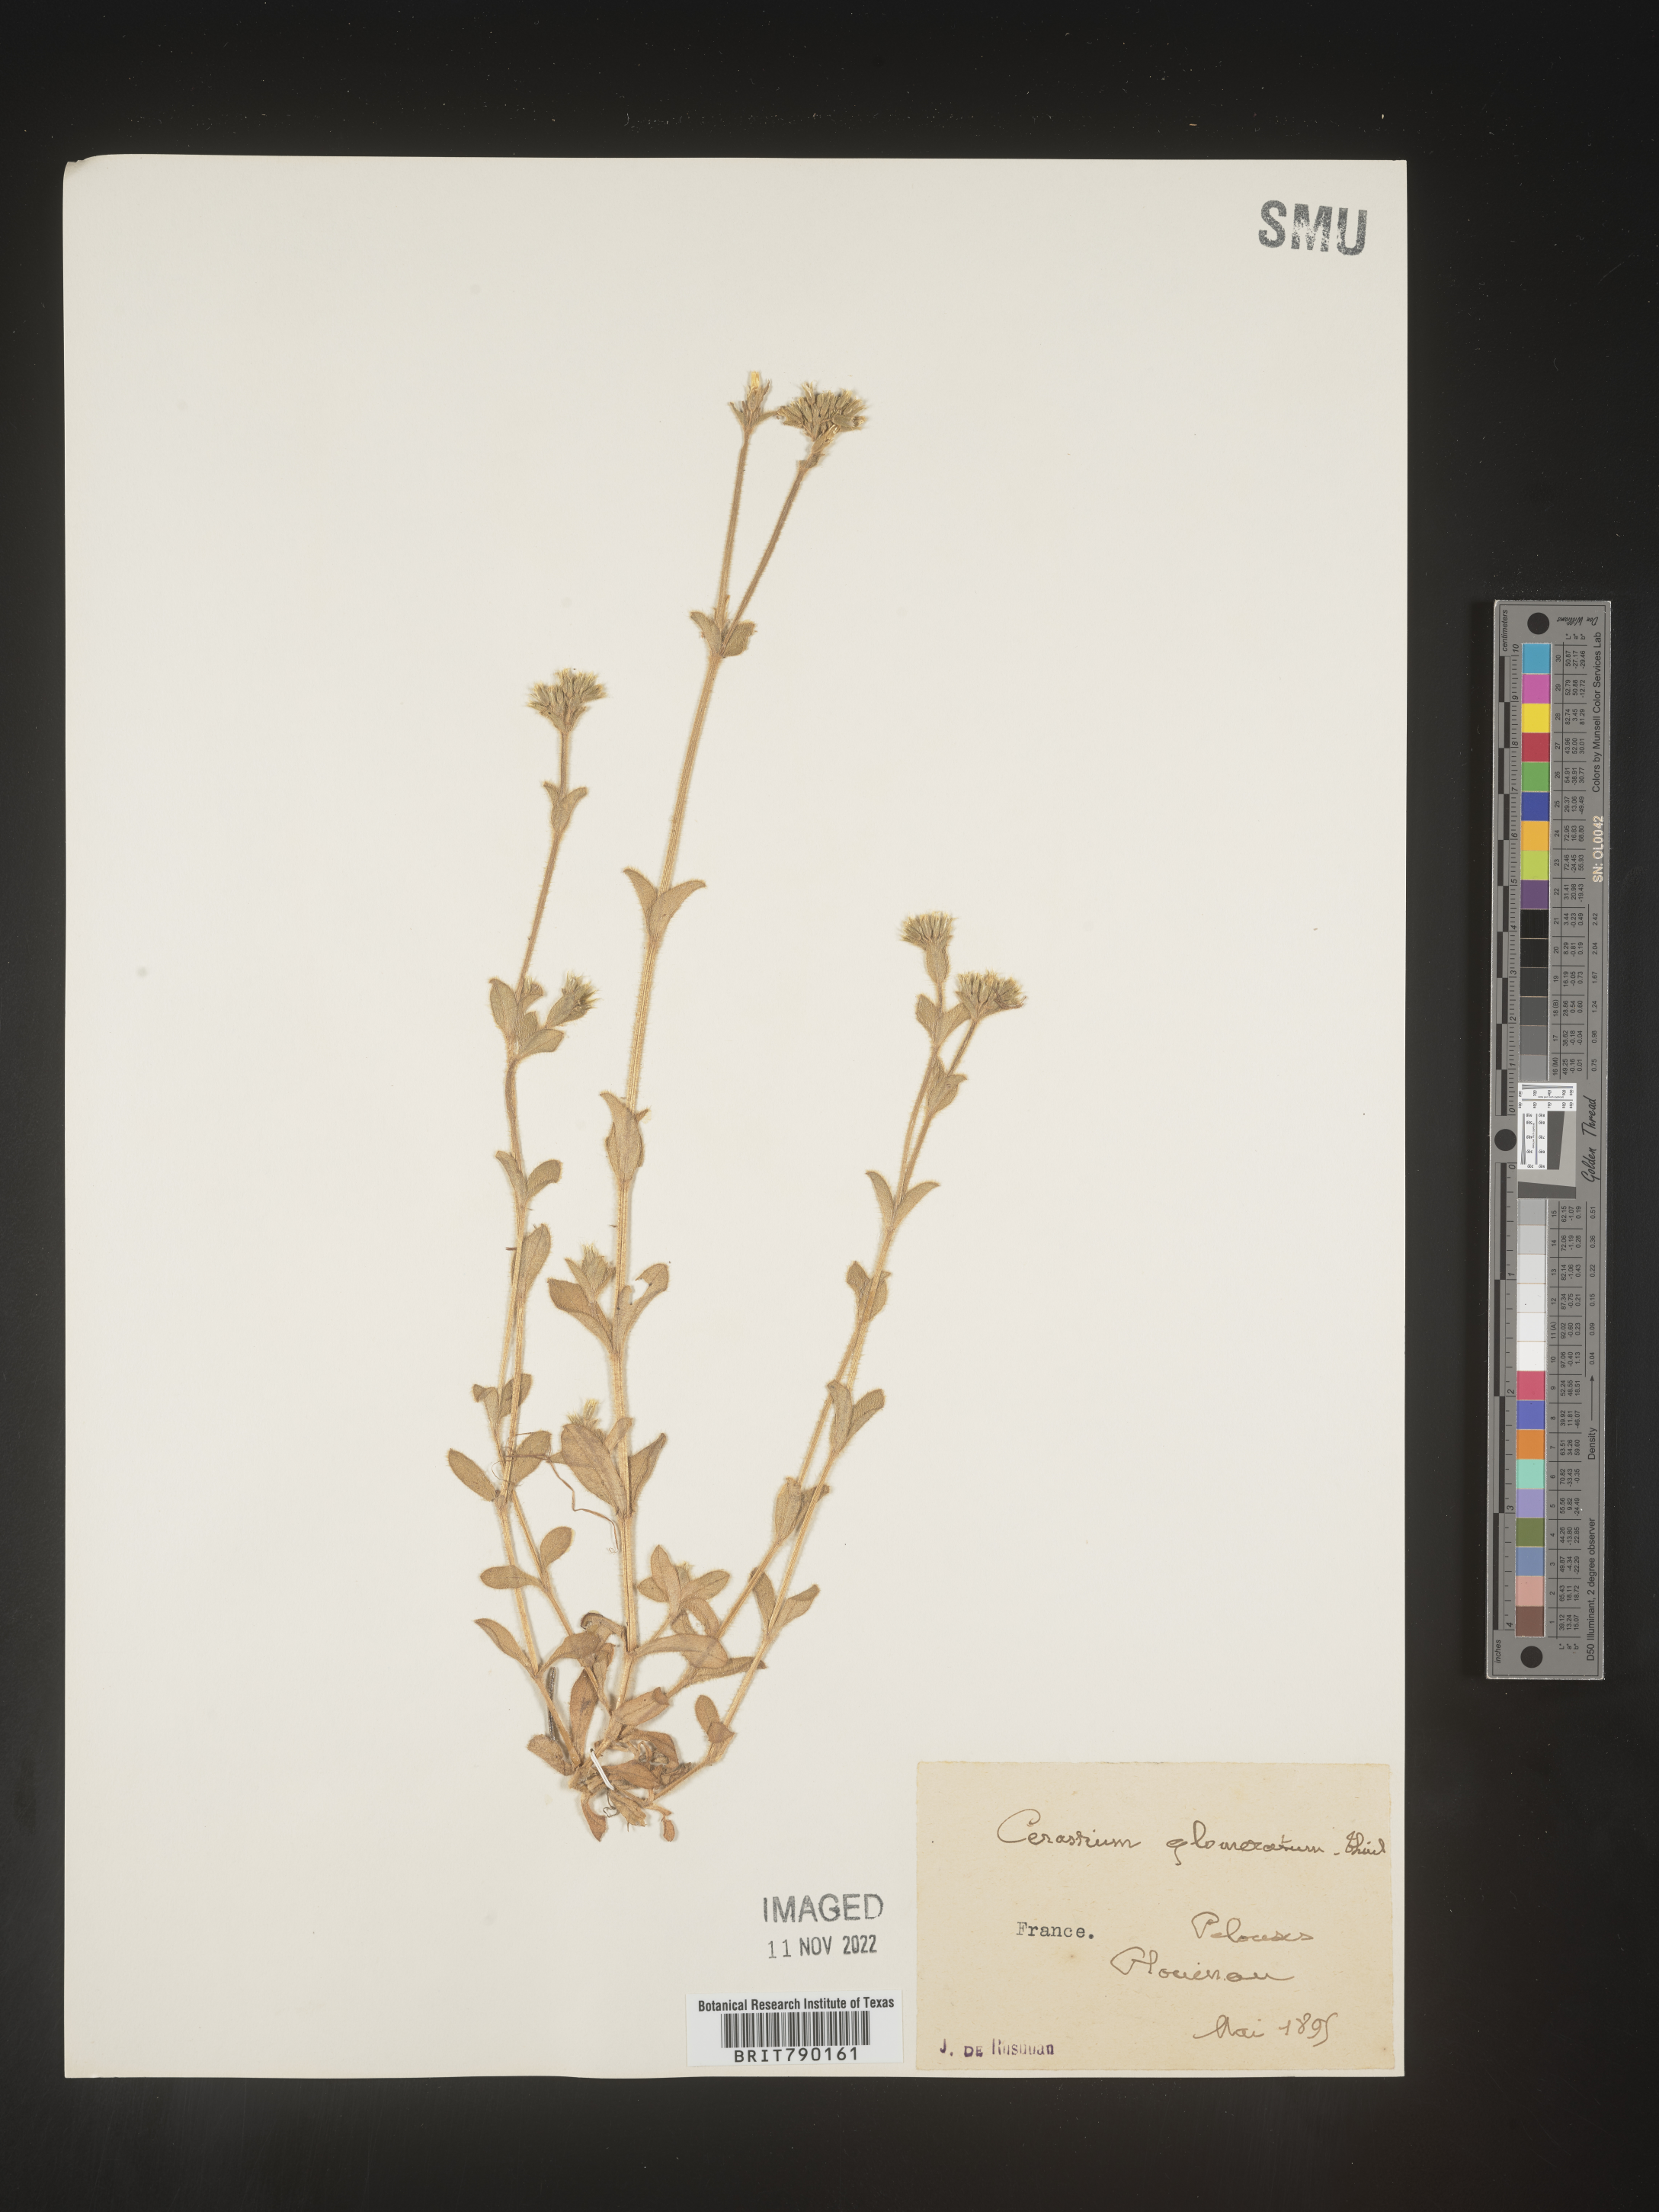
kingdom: Plantae
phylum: Tracheophyta
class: Magnoliopsida
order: Caryophyllales
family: Caryophyllaceae
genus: Cerastium
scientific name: Cerastium
